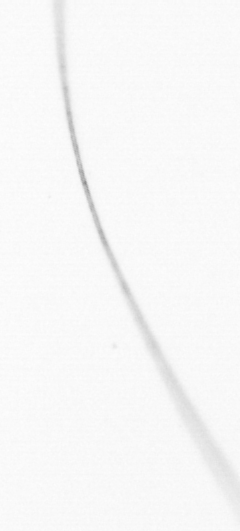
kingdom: Chromista
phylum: Ochrophyta
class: Bacillariophyceae
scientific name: Bacillariophyceae
